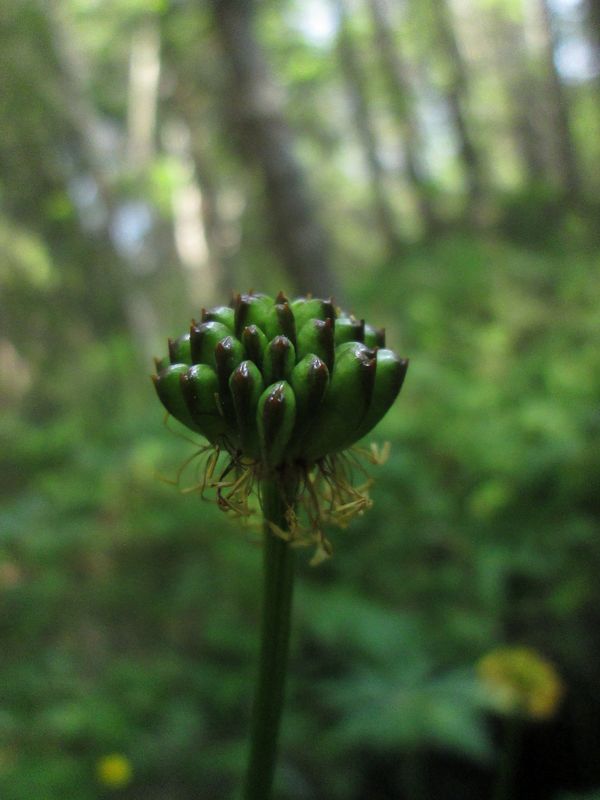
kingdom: Plantae
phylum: Tracheophyta
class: Magnoliopsida
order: Ranunculales
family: Ranunculaceae
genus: Trollius
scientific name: Trollius europaeus
